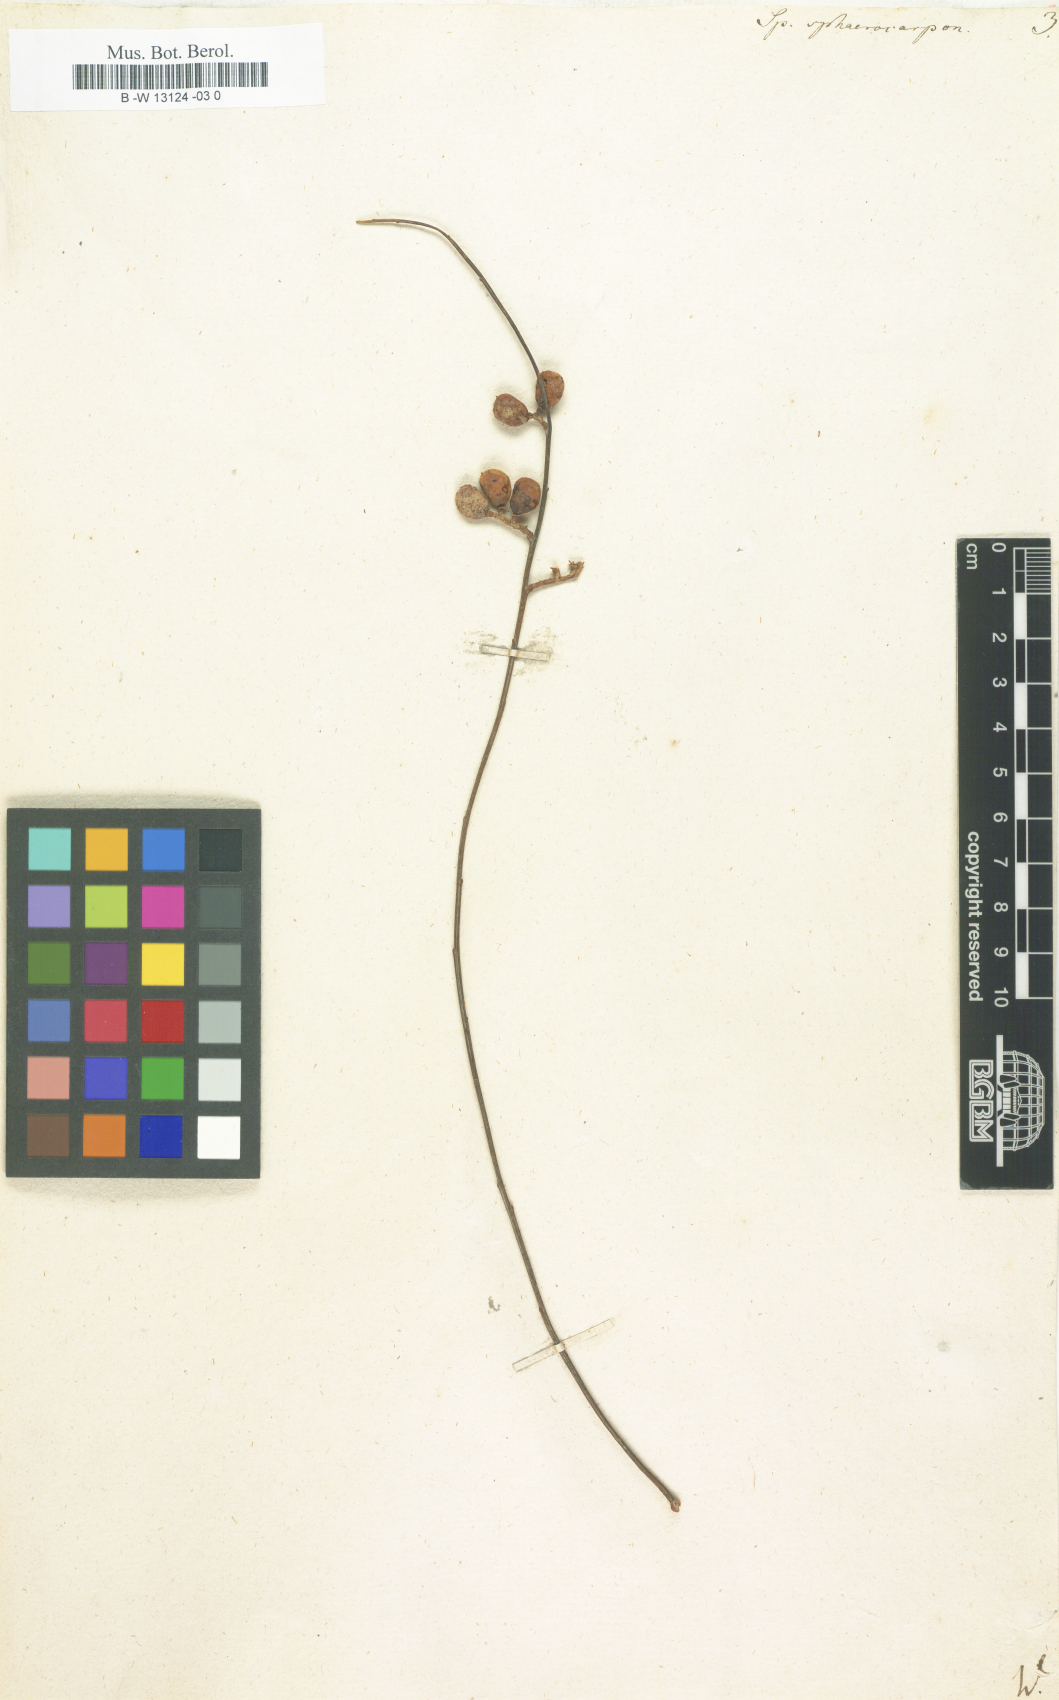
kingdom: Plantae
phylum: Tracheophyta
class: Magnoliopsida
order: Fabales
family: Fabaceae
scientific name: Fabaceae
